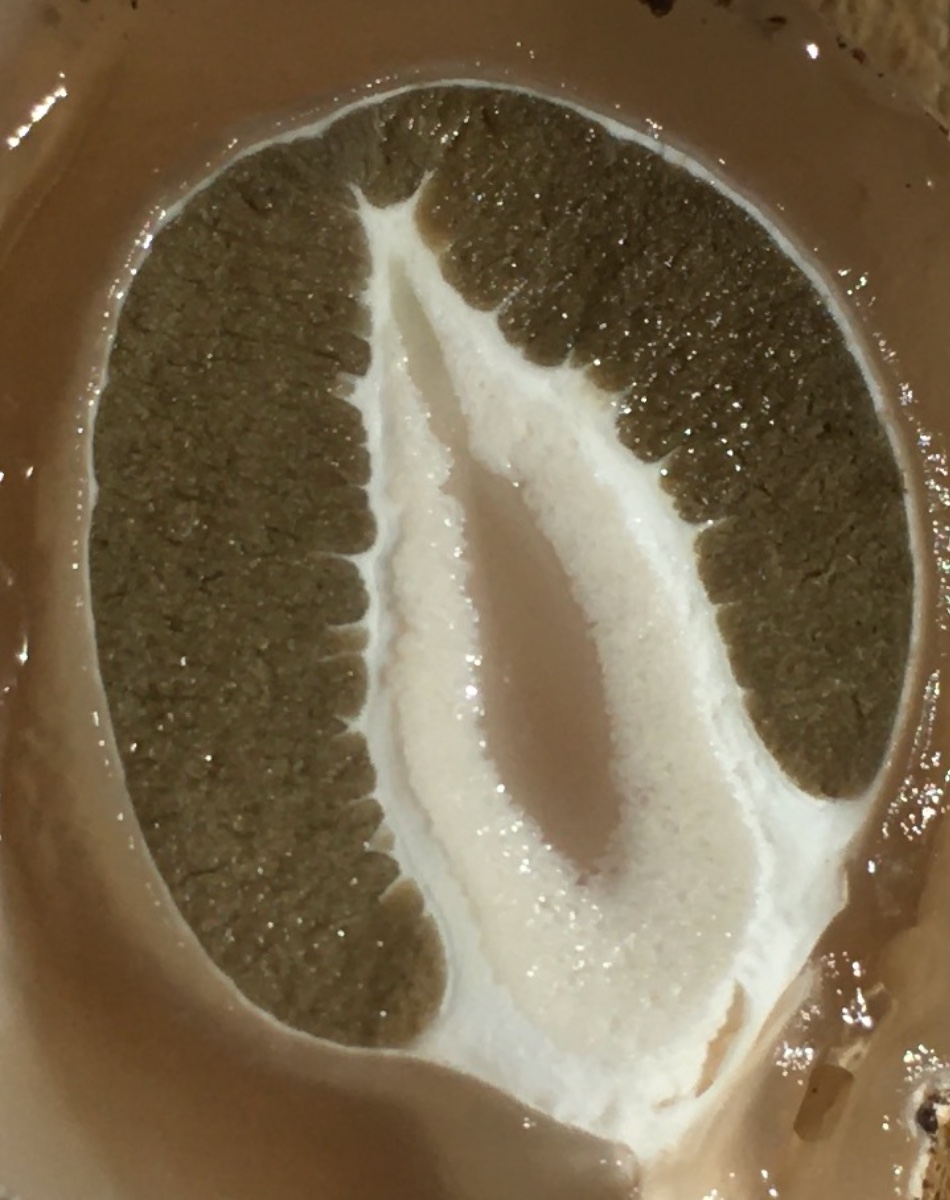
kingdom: Fungi
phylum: Basidiomycota
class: Agaricomycetes
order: Phallales
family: Phallaceae
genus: Phallus
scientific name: Phallus impudicus
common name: almindelig stinksvamp
